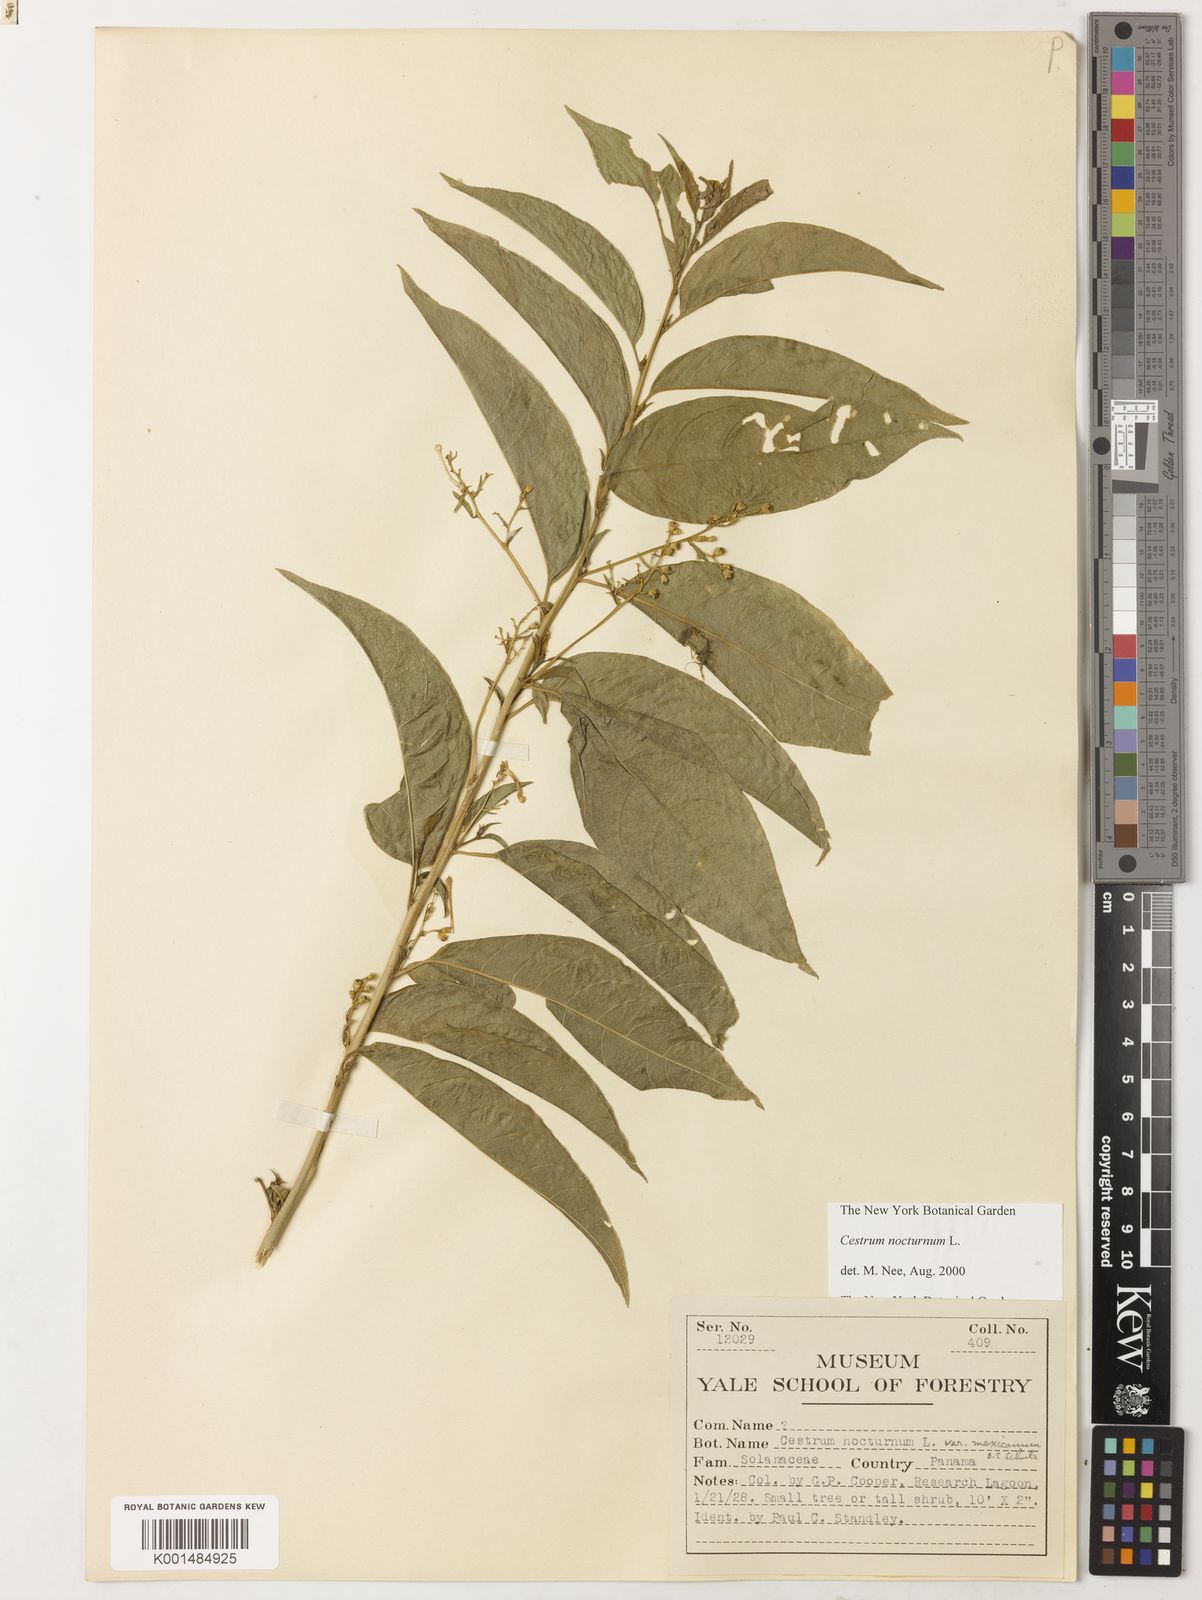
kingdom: Plantae
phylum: Tracheophyta
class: Magnoliopsida
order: Solanales
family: Solanaceae
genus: Cestrum
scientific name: Cestrum nocturnum
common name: Night jessamine
